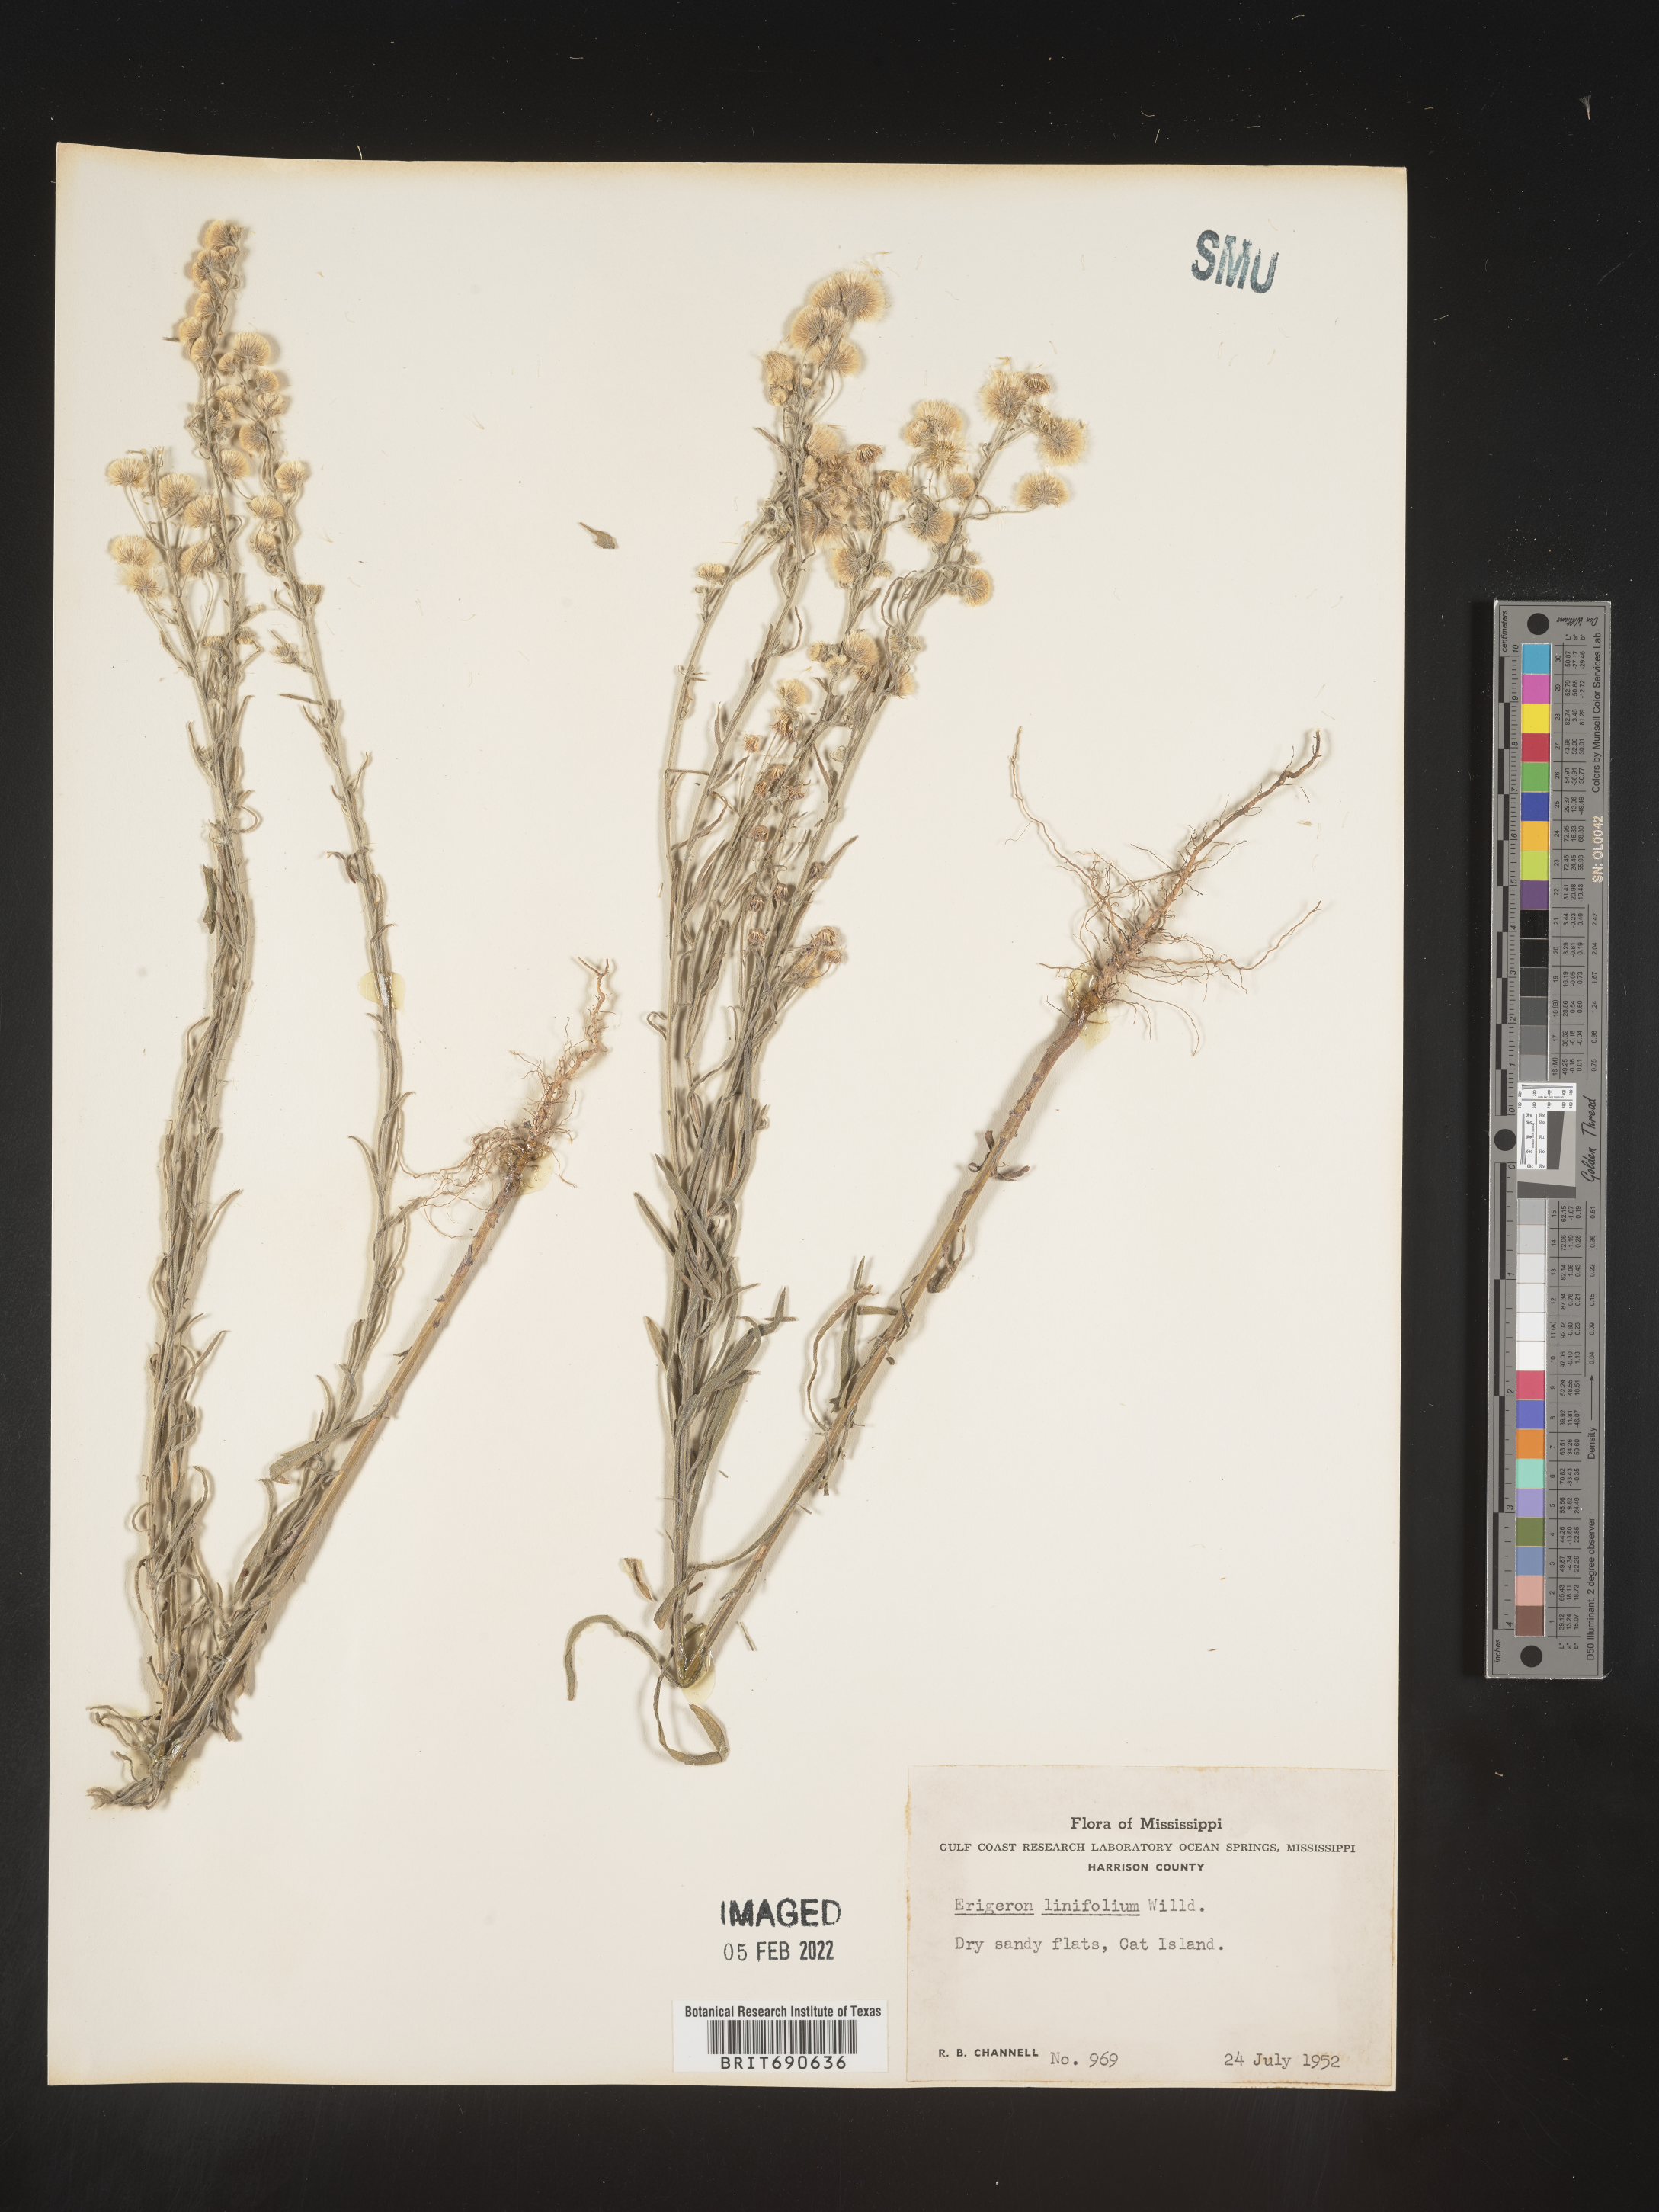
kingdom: Plantae
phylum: Tracheophyta
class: Magnoliopsida
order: Asterales
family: Asteraceae
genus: Erigeron
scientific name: Erigeron bonariensis
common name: Argentine fleabane
